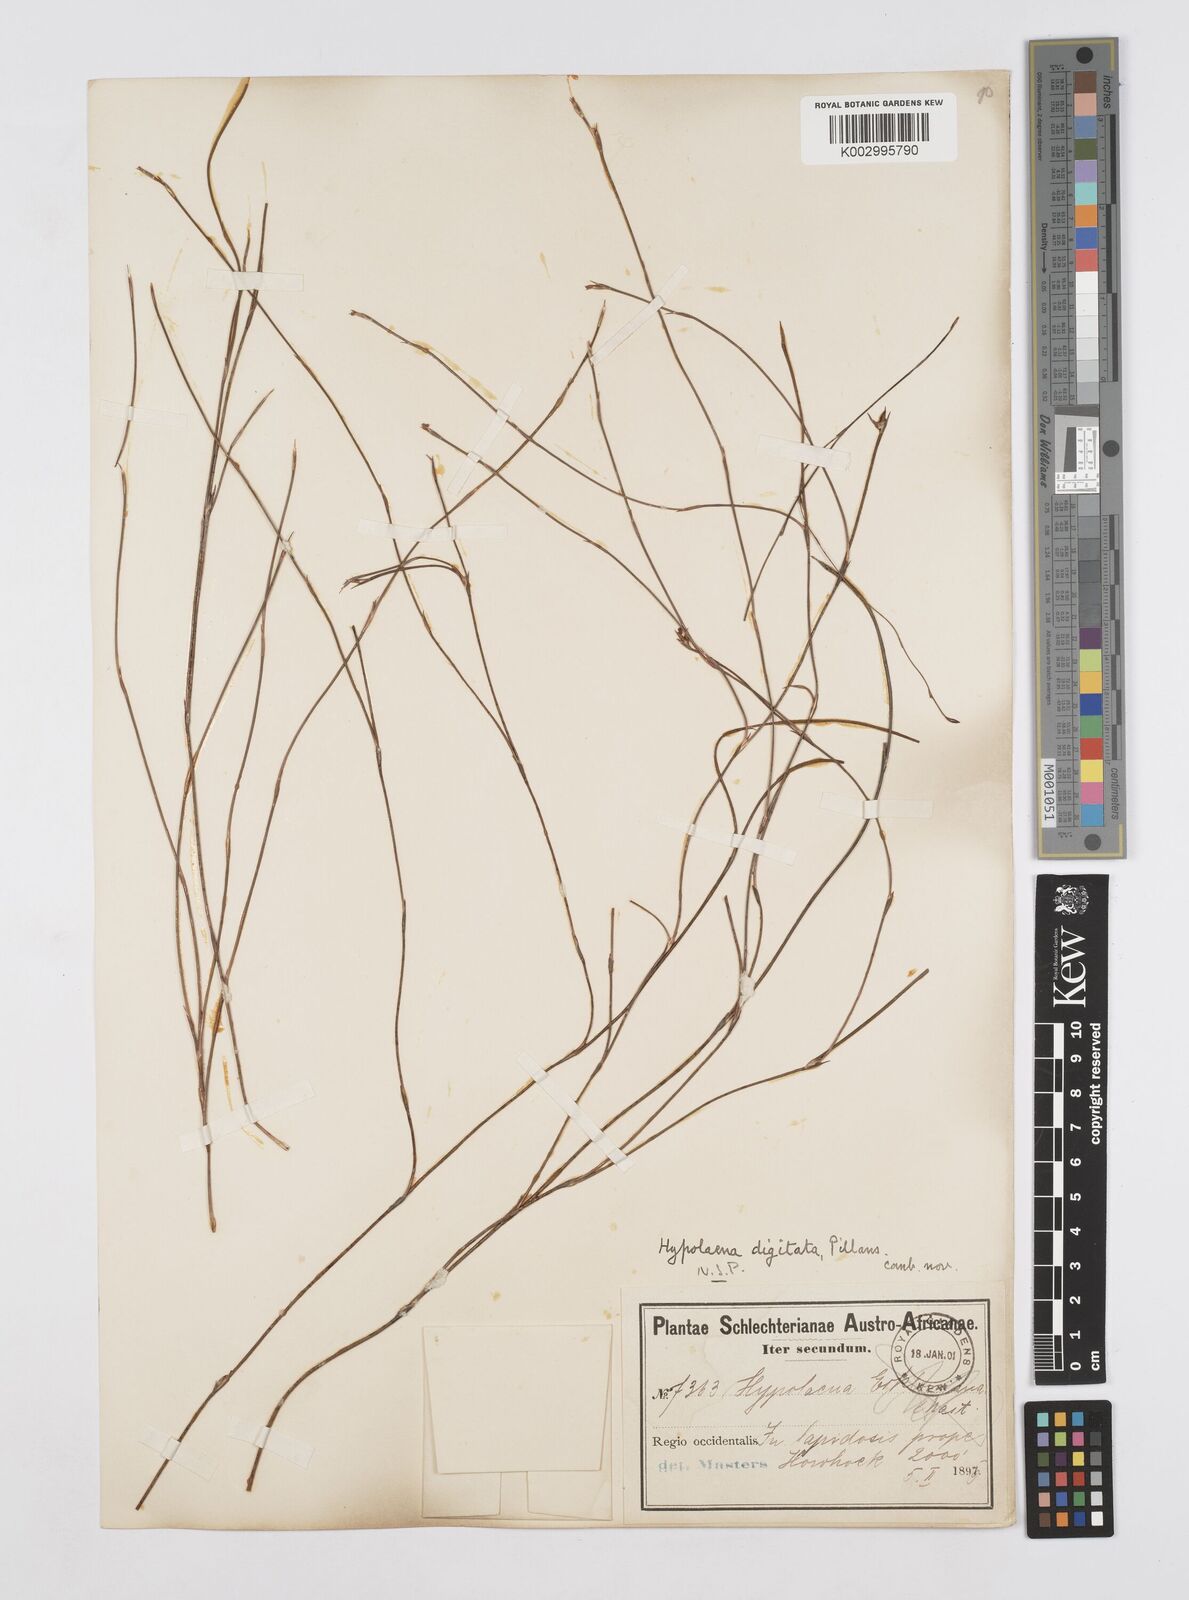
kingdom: Plantae
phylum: Tracheophyta
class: Liliopsida
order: Poales
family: Restionaceae
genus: Mastersiella
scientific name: Mastersiella digitata
